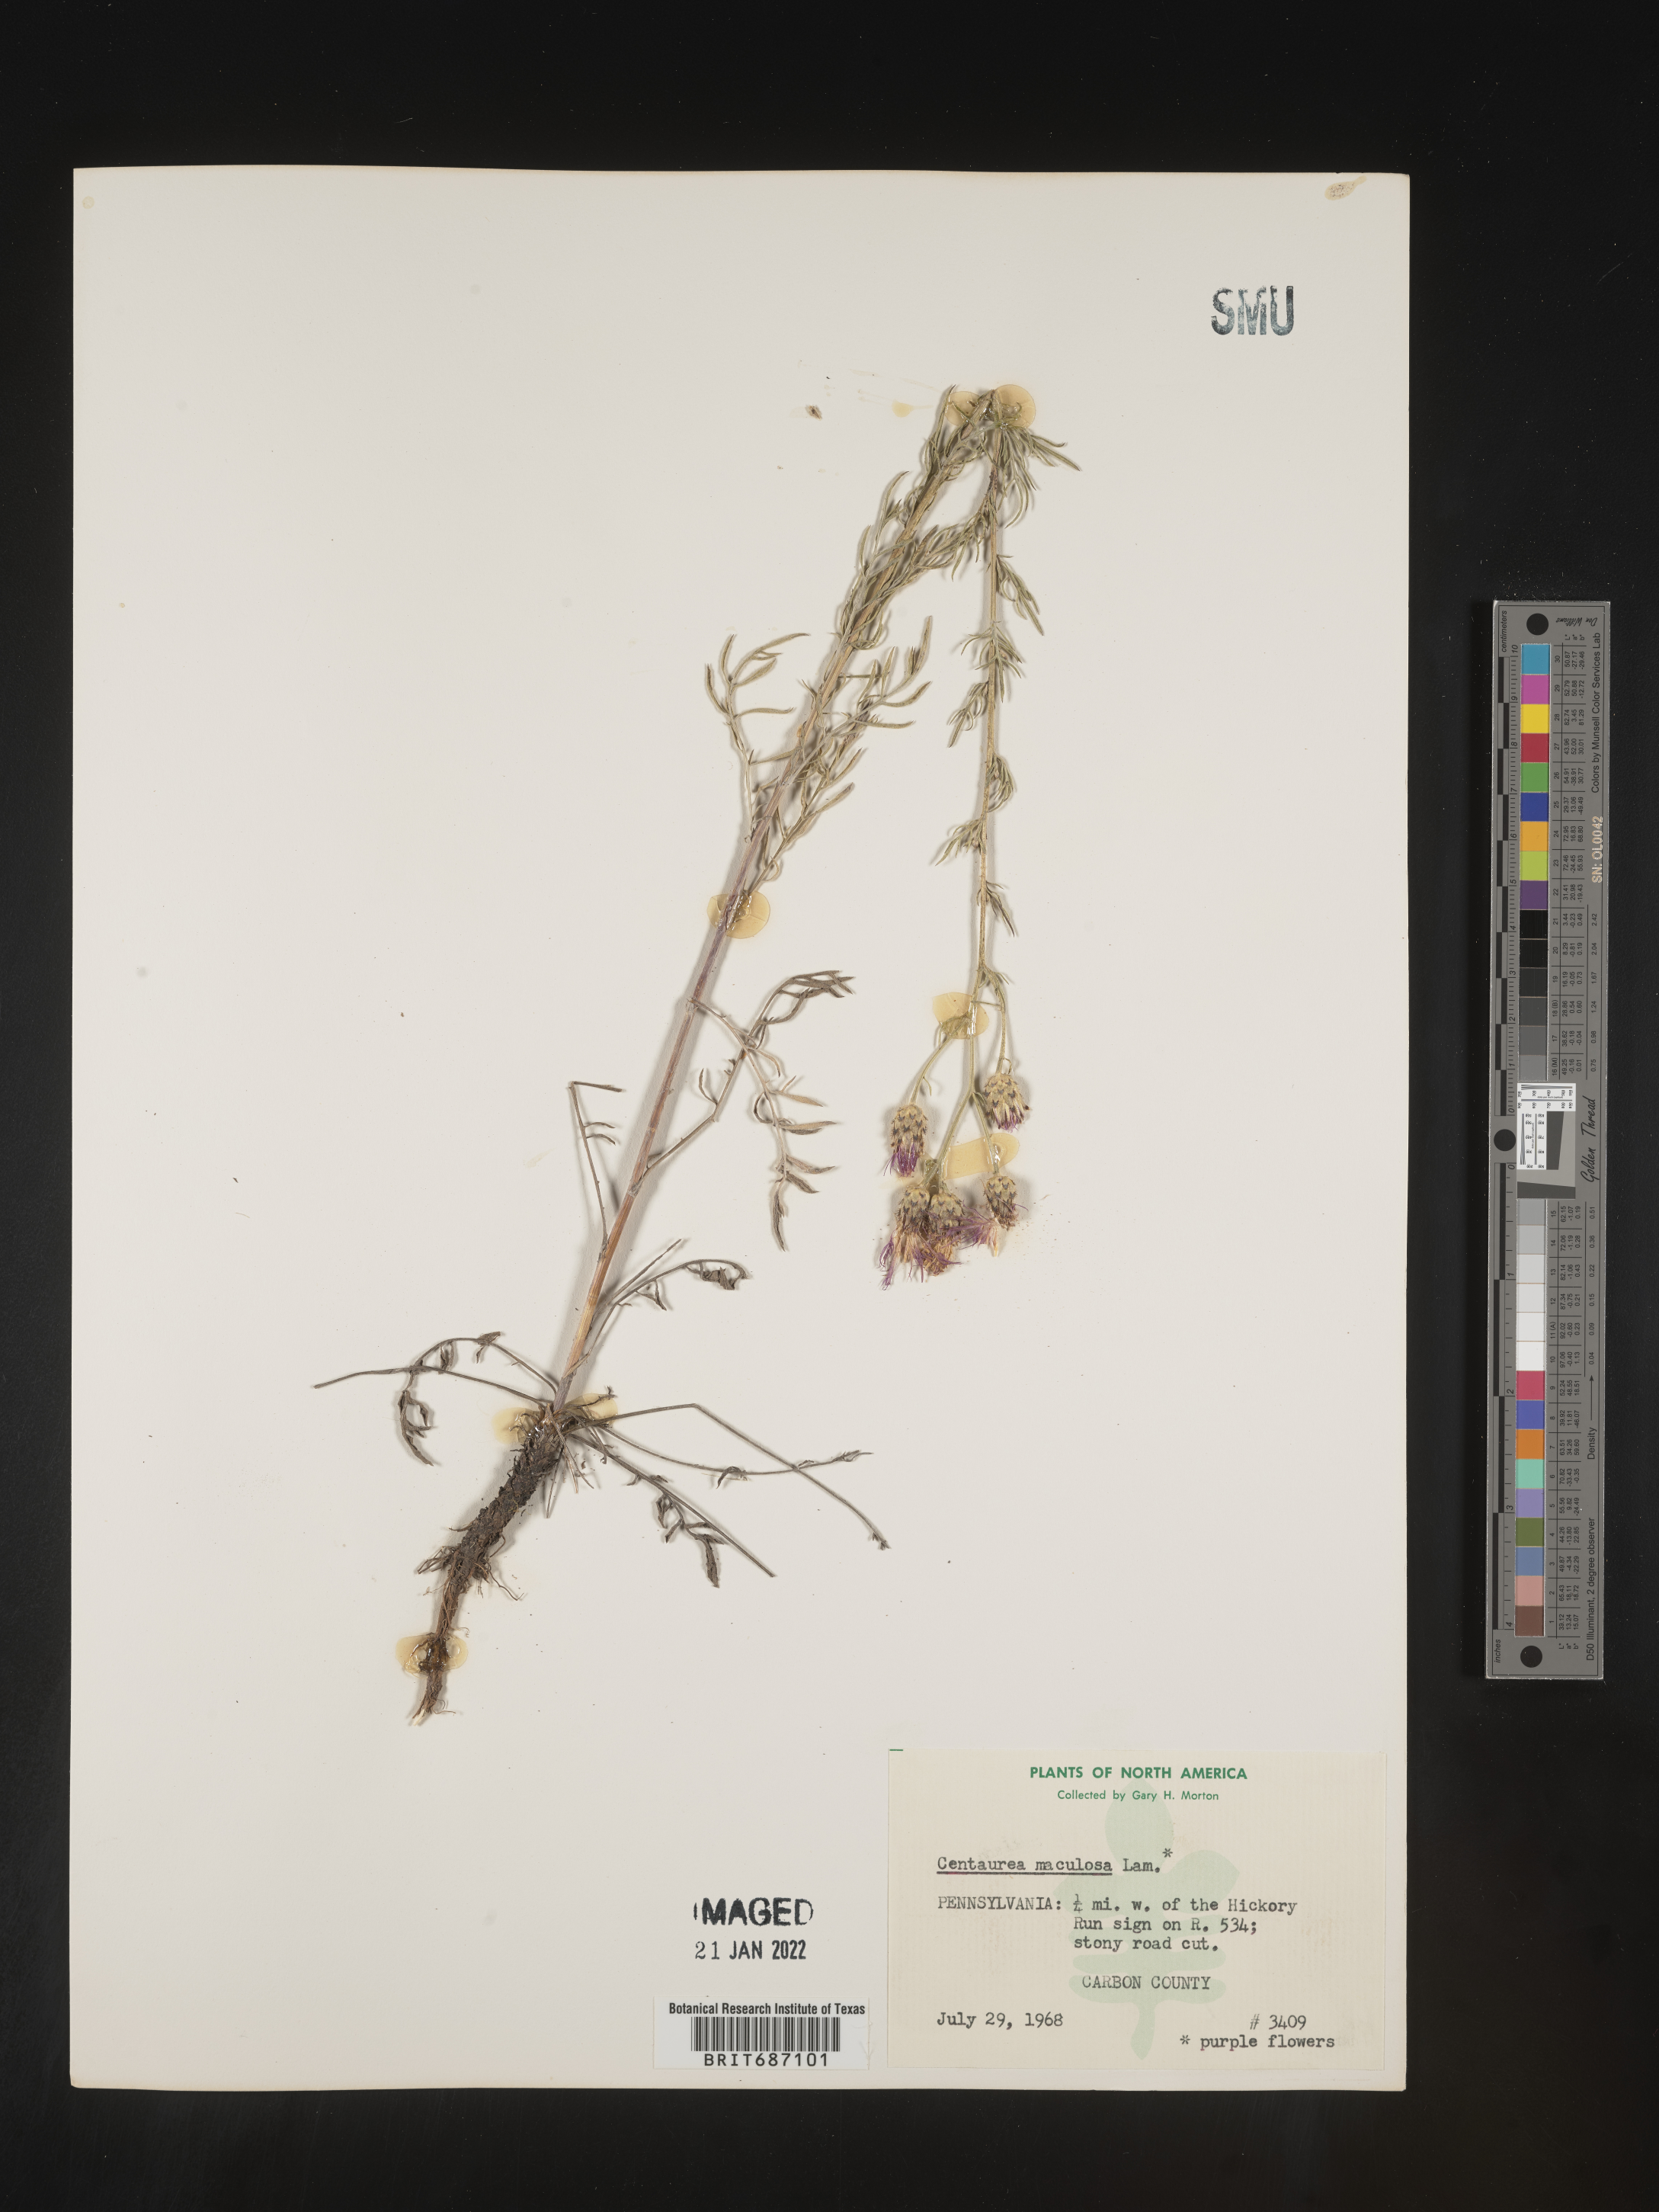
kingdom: Plantae
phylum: Tracheophyta
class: Magnoliopsida
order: Asterales
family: Asteraceae
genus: Centaurea
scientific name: Centaurea stoebe
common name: Spotted knapweed
